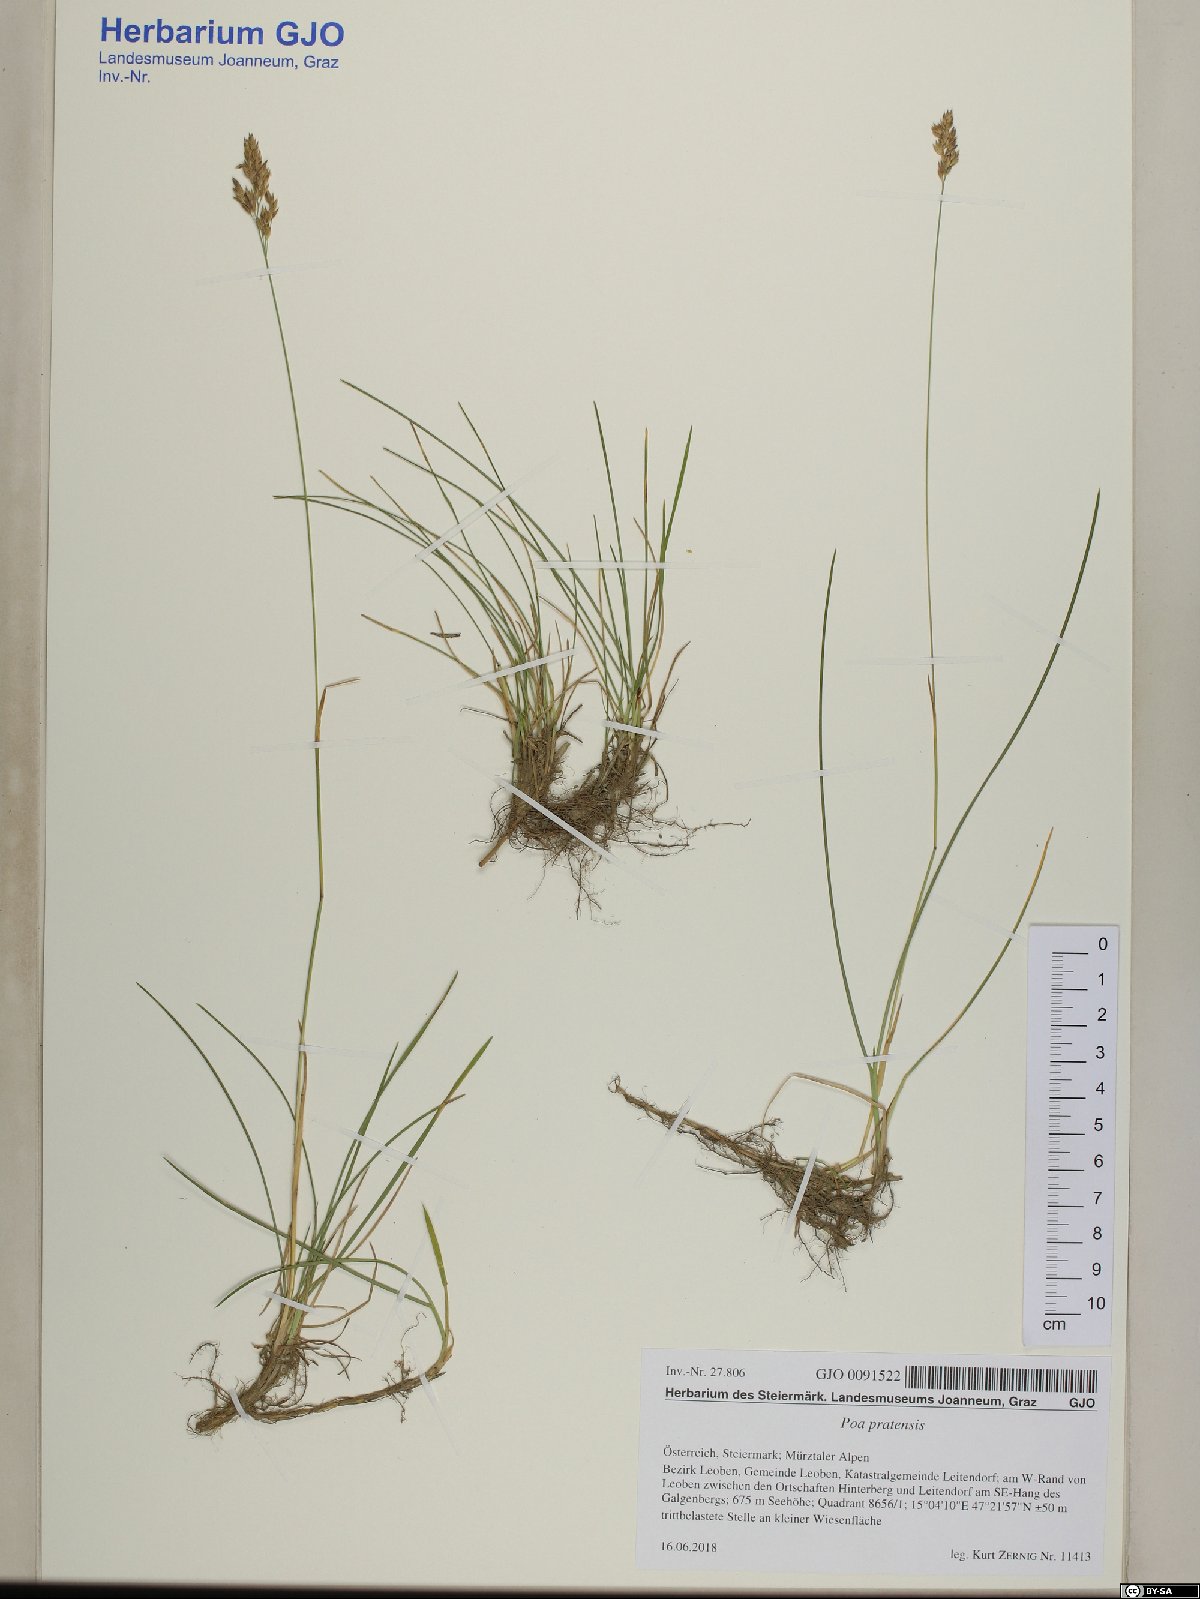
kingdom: Plantae
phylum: Tracheophyta
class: Liliopsida
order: Poales
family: Poaceae
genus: Poa
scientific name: Poa pratensis
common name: Kentucky bluegrass
